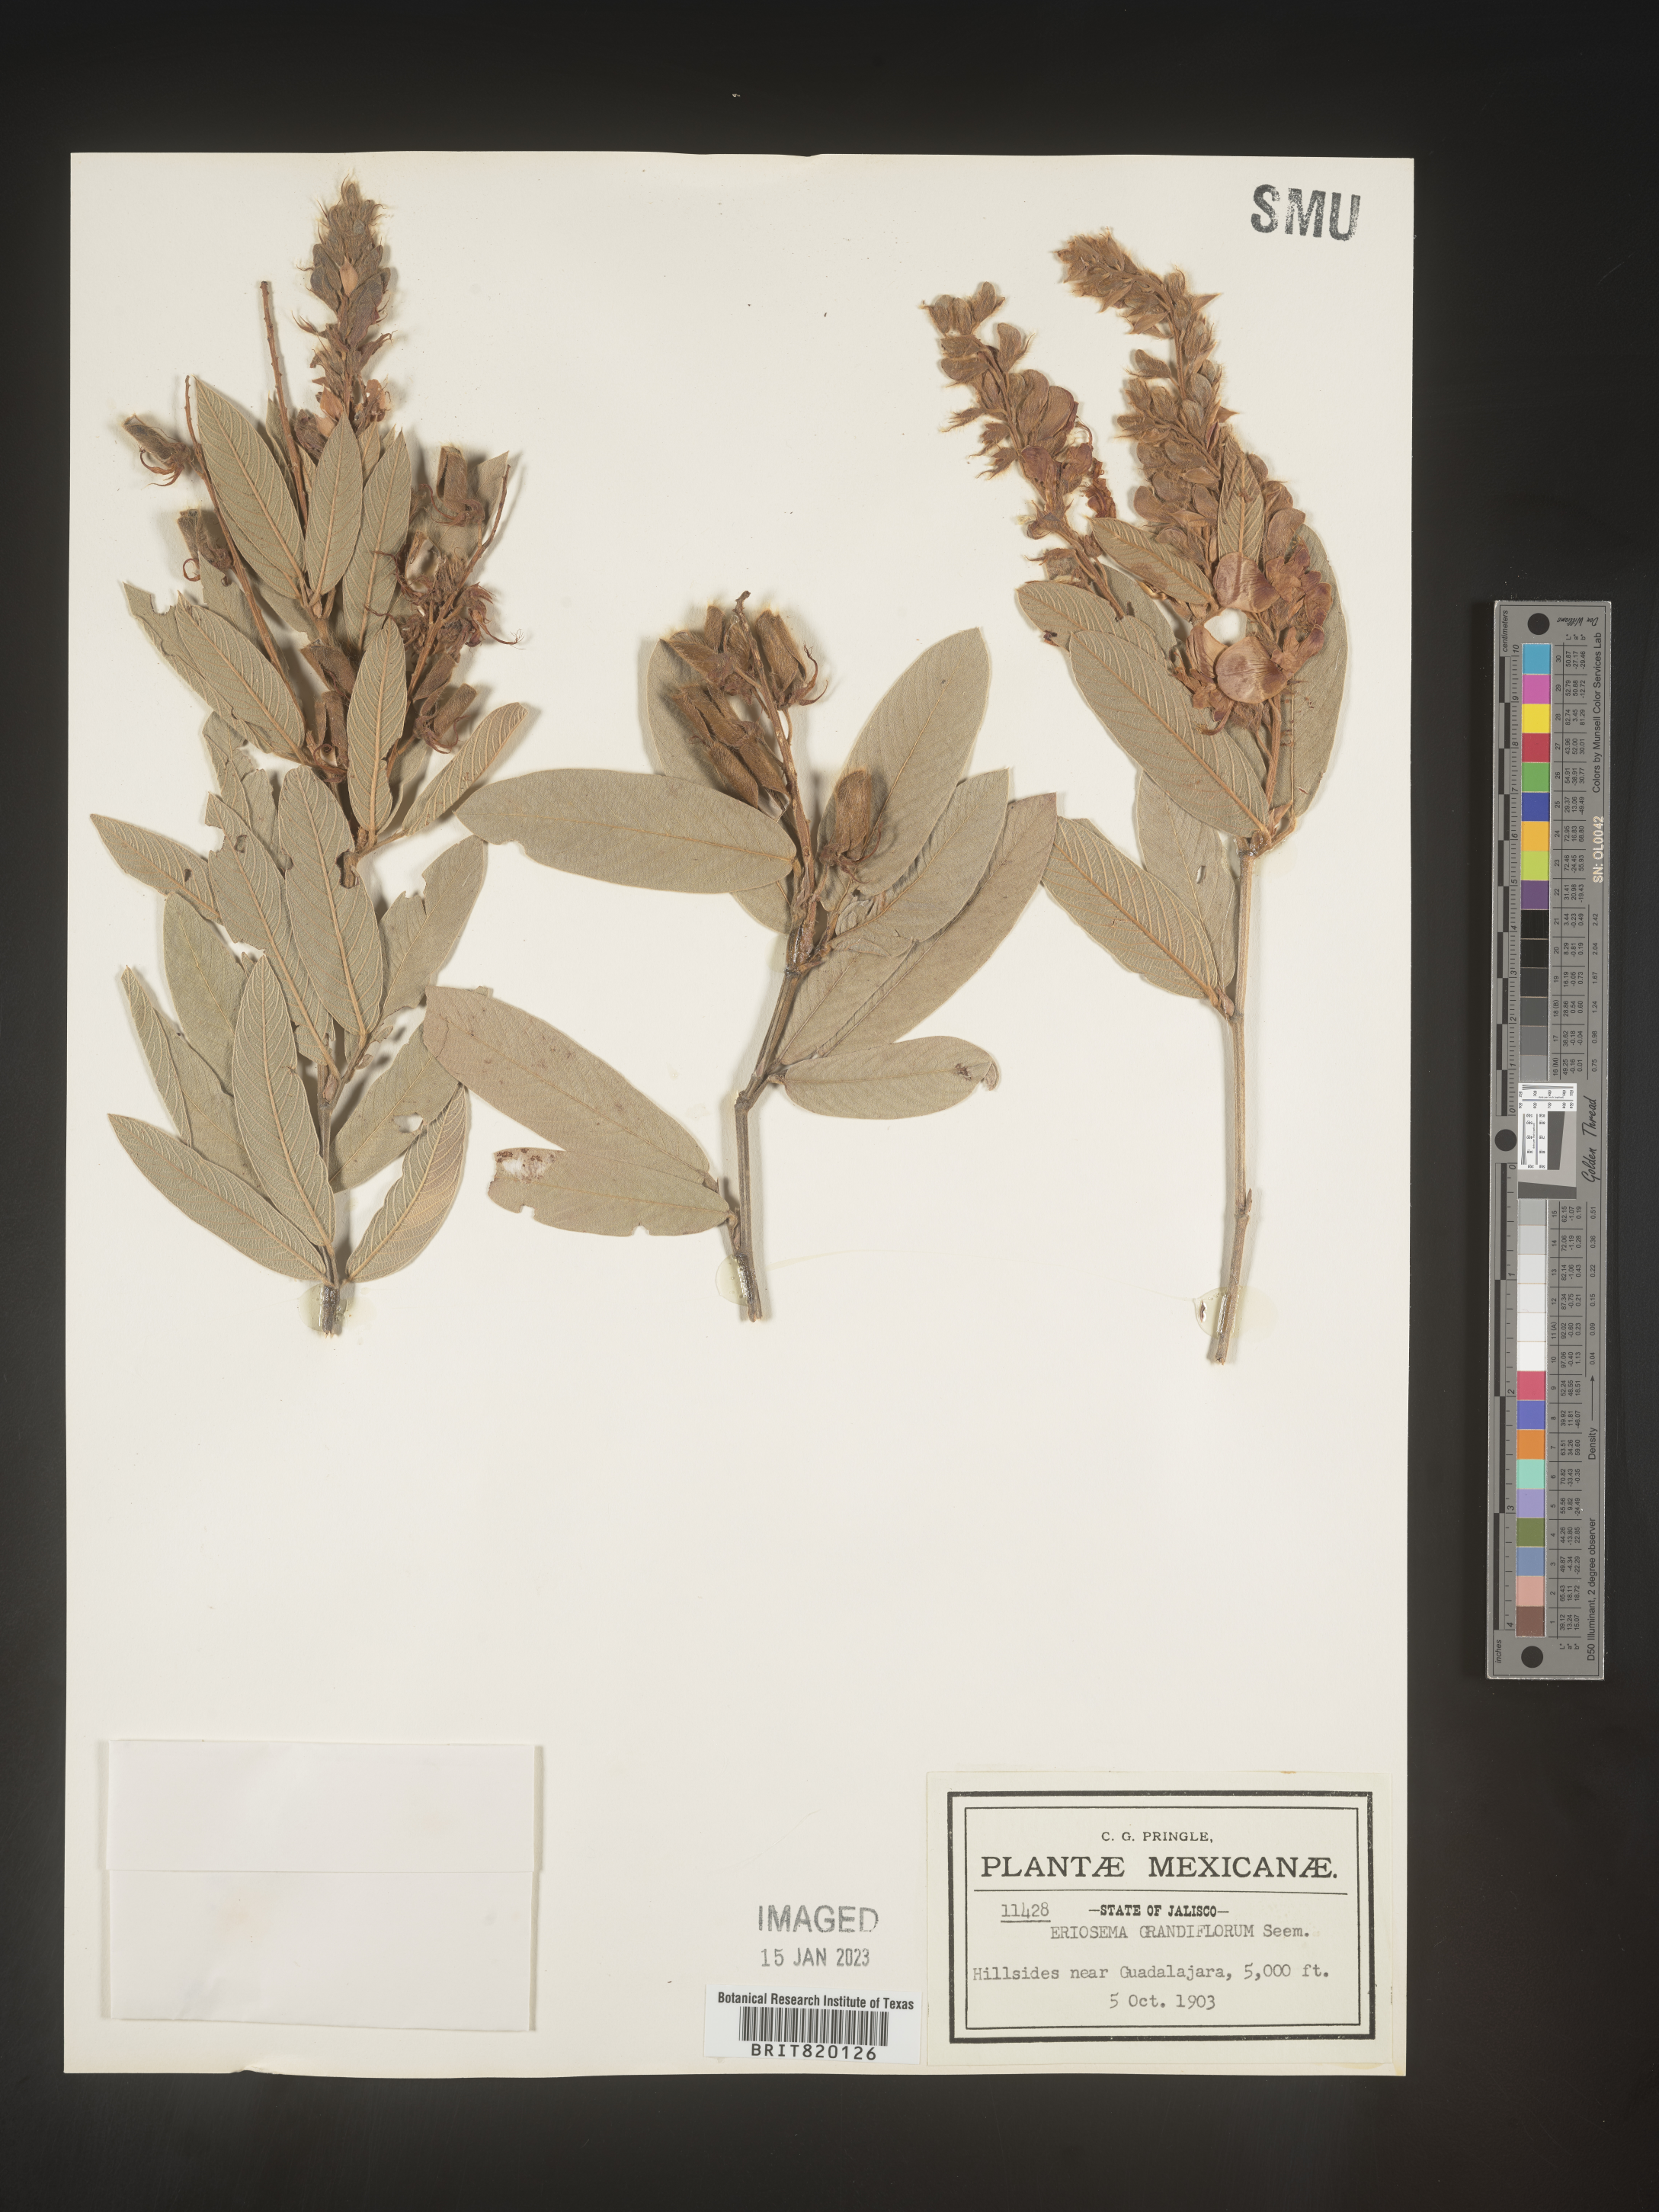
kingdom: Plantae
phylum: Tracheophyta
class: Magnoliopsida
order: Fabales
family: Fabaceae
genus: Eriosema
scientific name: Eriosema
